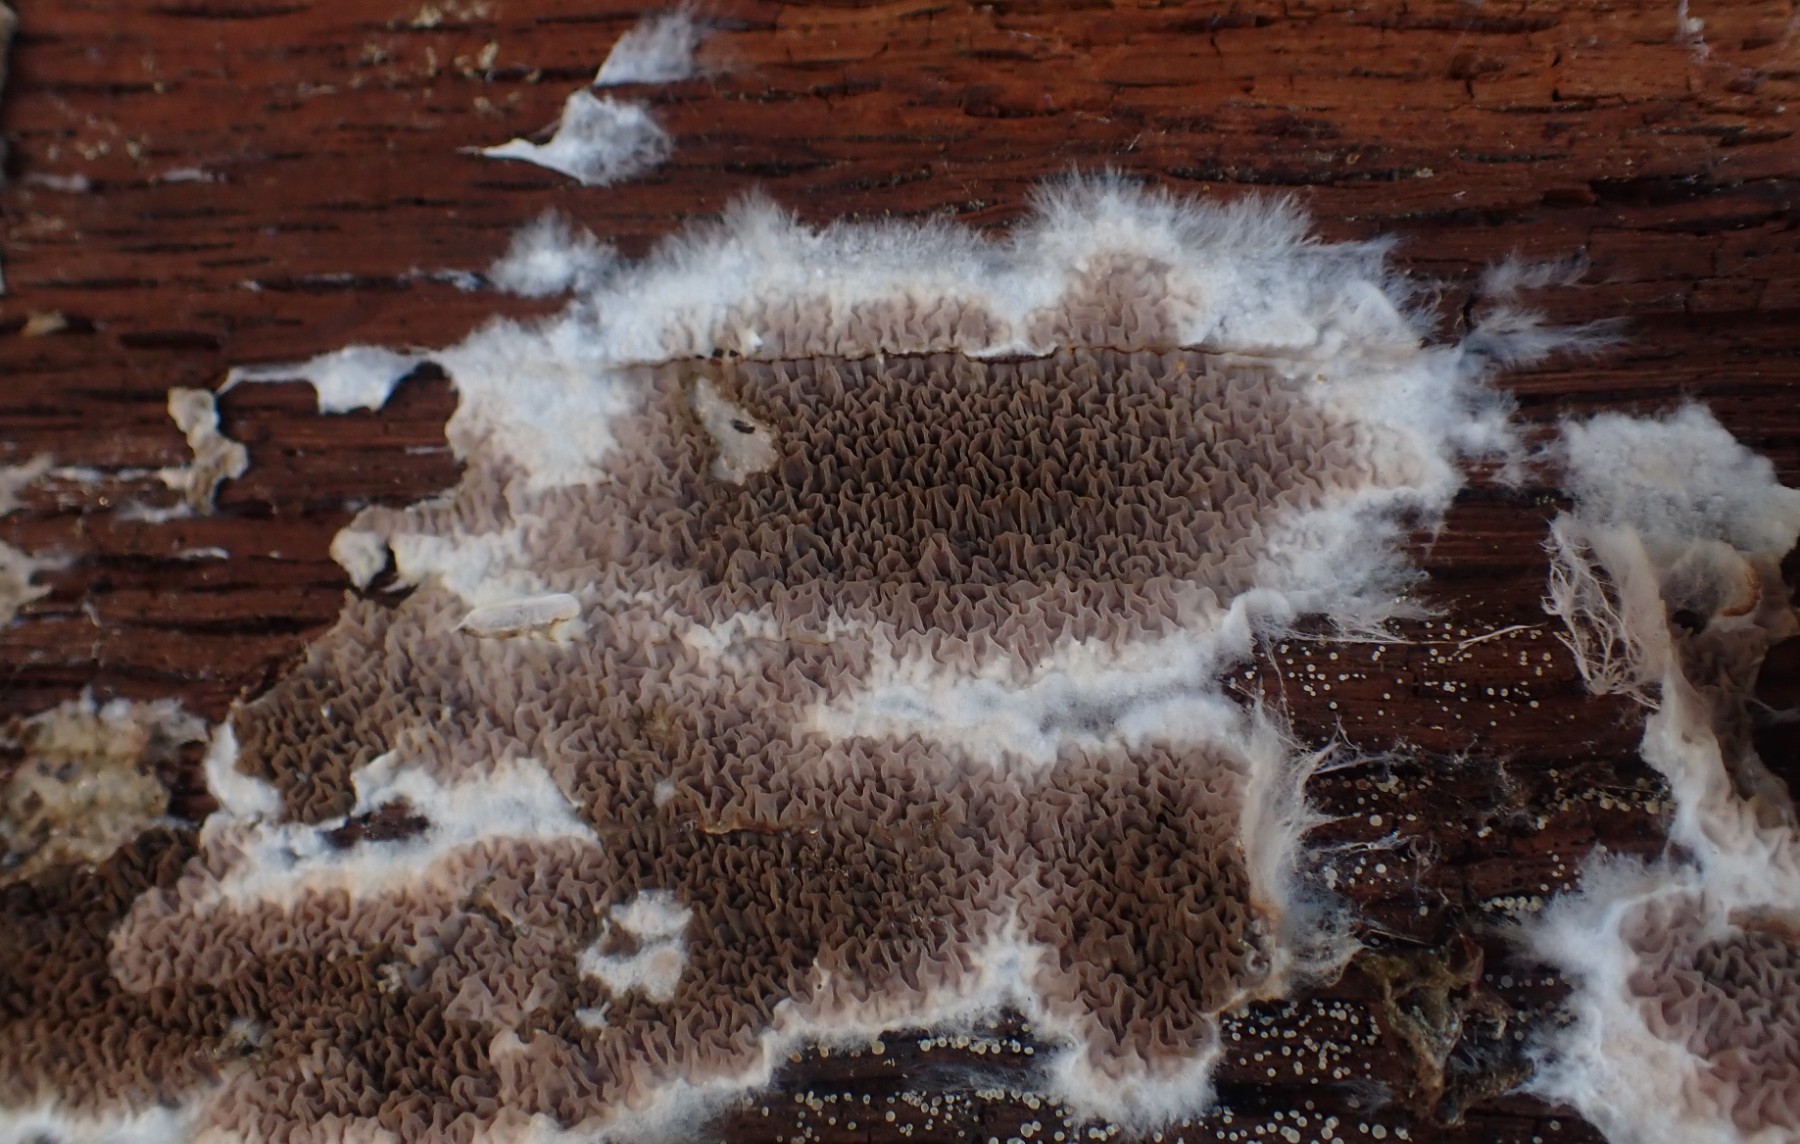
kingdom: Fungi
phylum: Basidiomycota
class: Agaricomycetes
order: Boletales
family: Serpulaceae
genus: Serpula
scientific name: Serpula himantioides
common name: tyndkødet hussvamp
